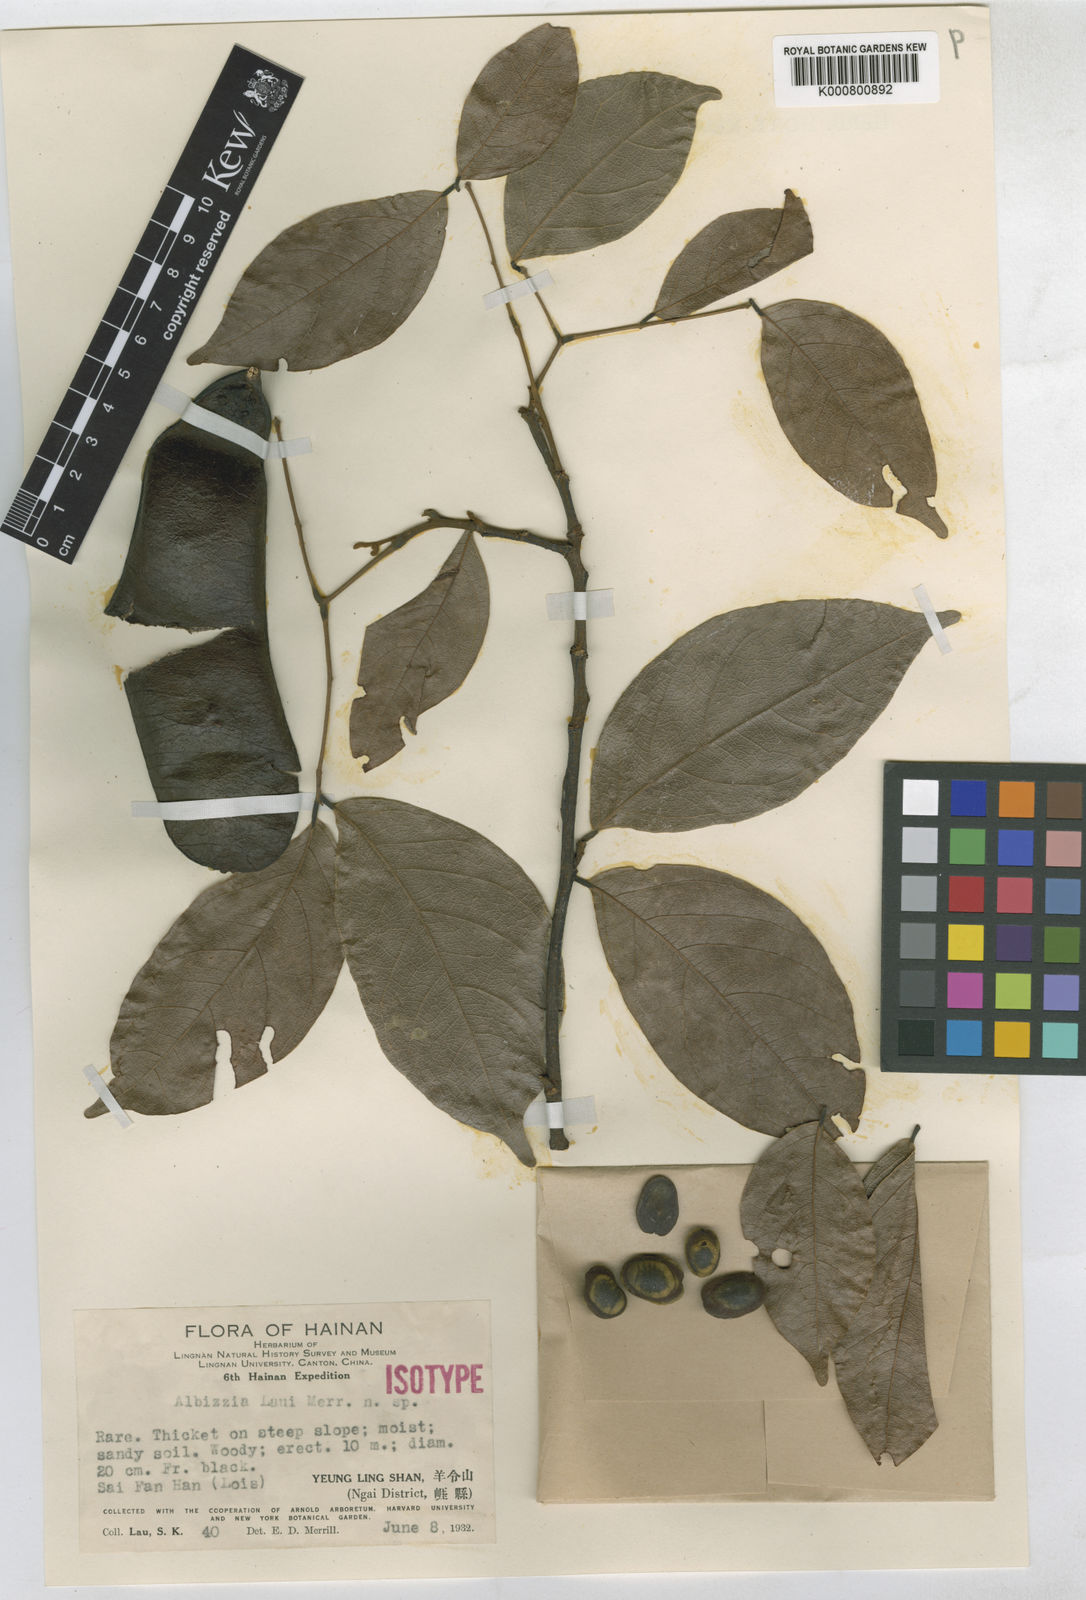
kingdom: Plantae
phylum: Tracheophyta
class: Magnoliopsida
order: Fabales
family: Fabaceae
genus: Albizia
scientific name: Albizia
